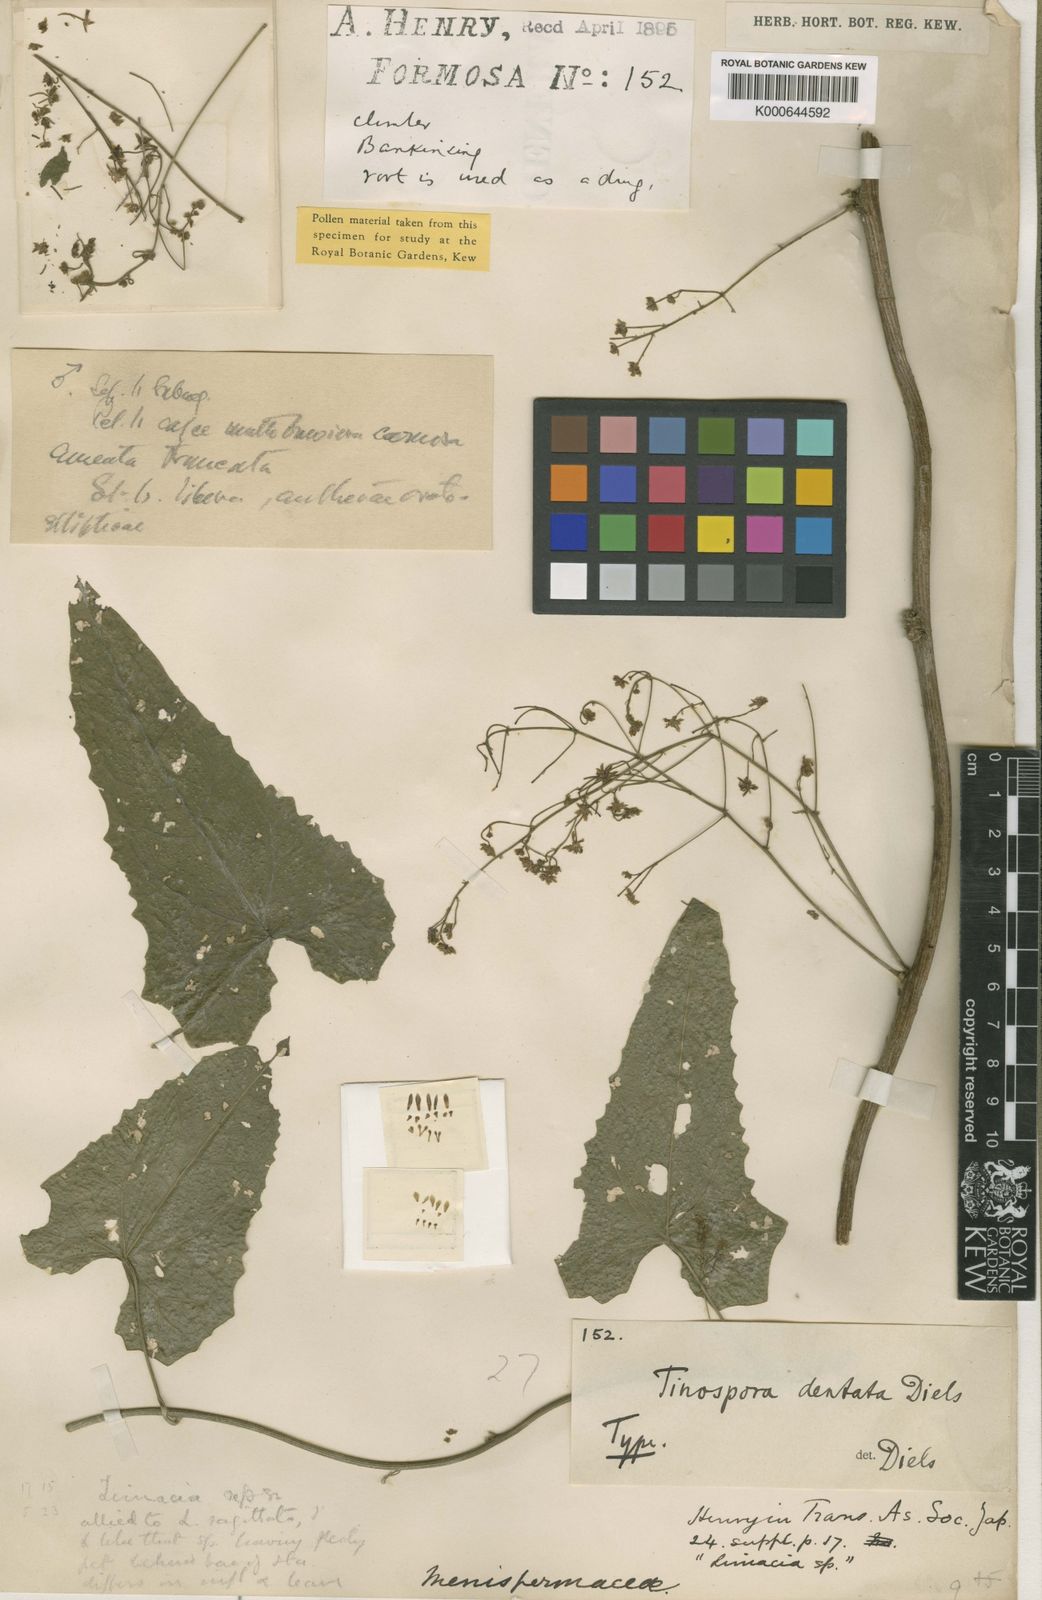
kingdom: Plantae
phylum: Tracheophyta
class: Magnoliopsida
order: Ranunculales
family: Menispermaceae
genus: Paratinospora
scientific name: Paratinospora dentata
